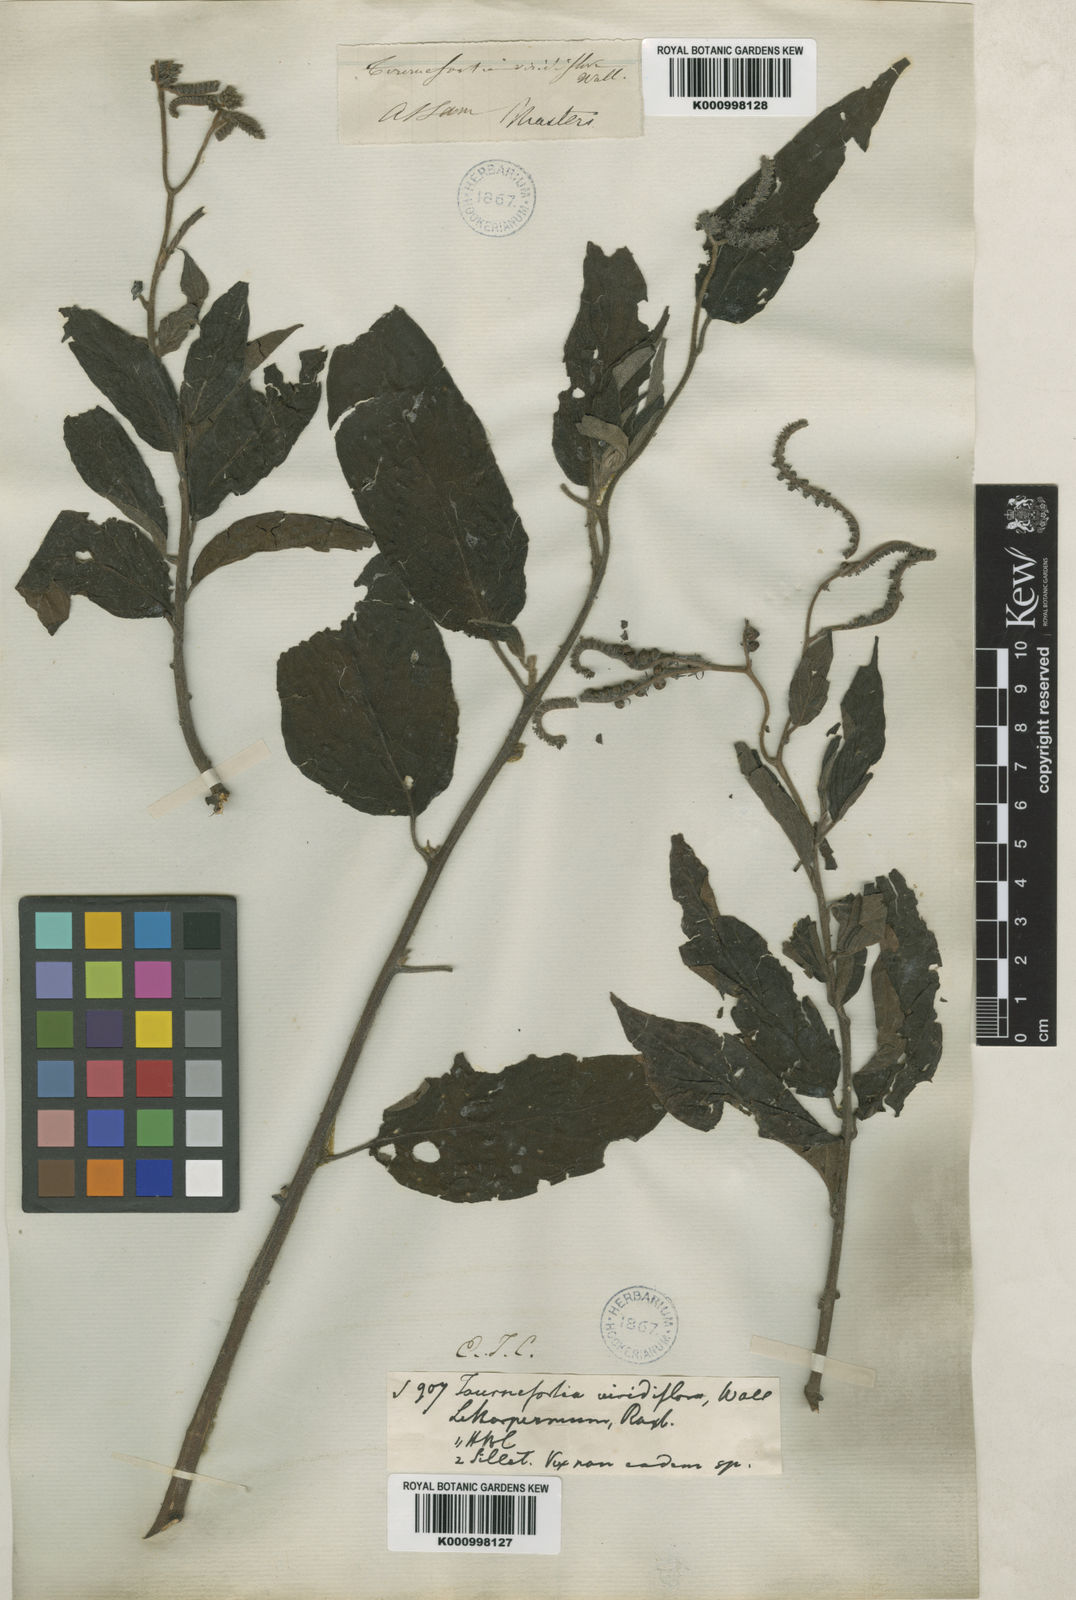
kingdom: Plantae
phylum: Tracheophyta
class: Magnoliopsida
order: Boraginales
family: Heliotropiaceae
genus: Tournefortia
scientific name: Tournefortia montana
